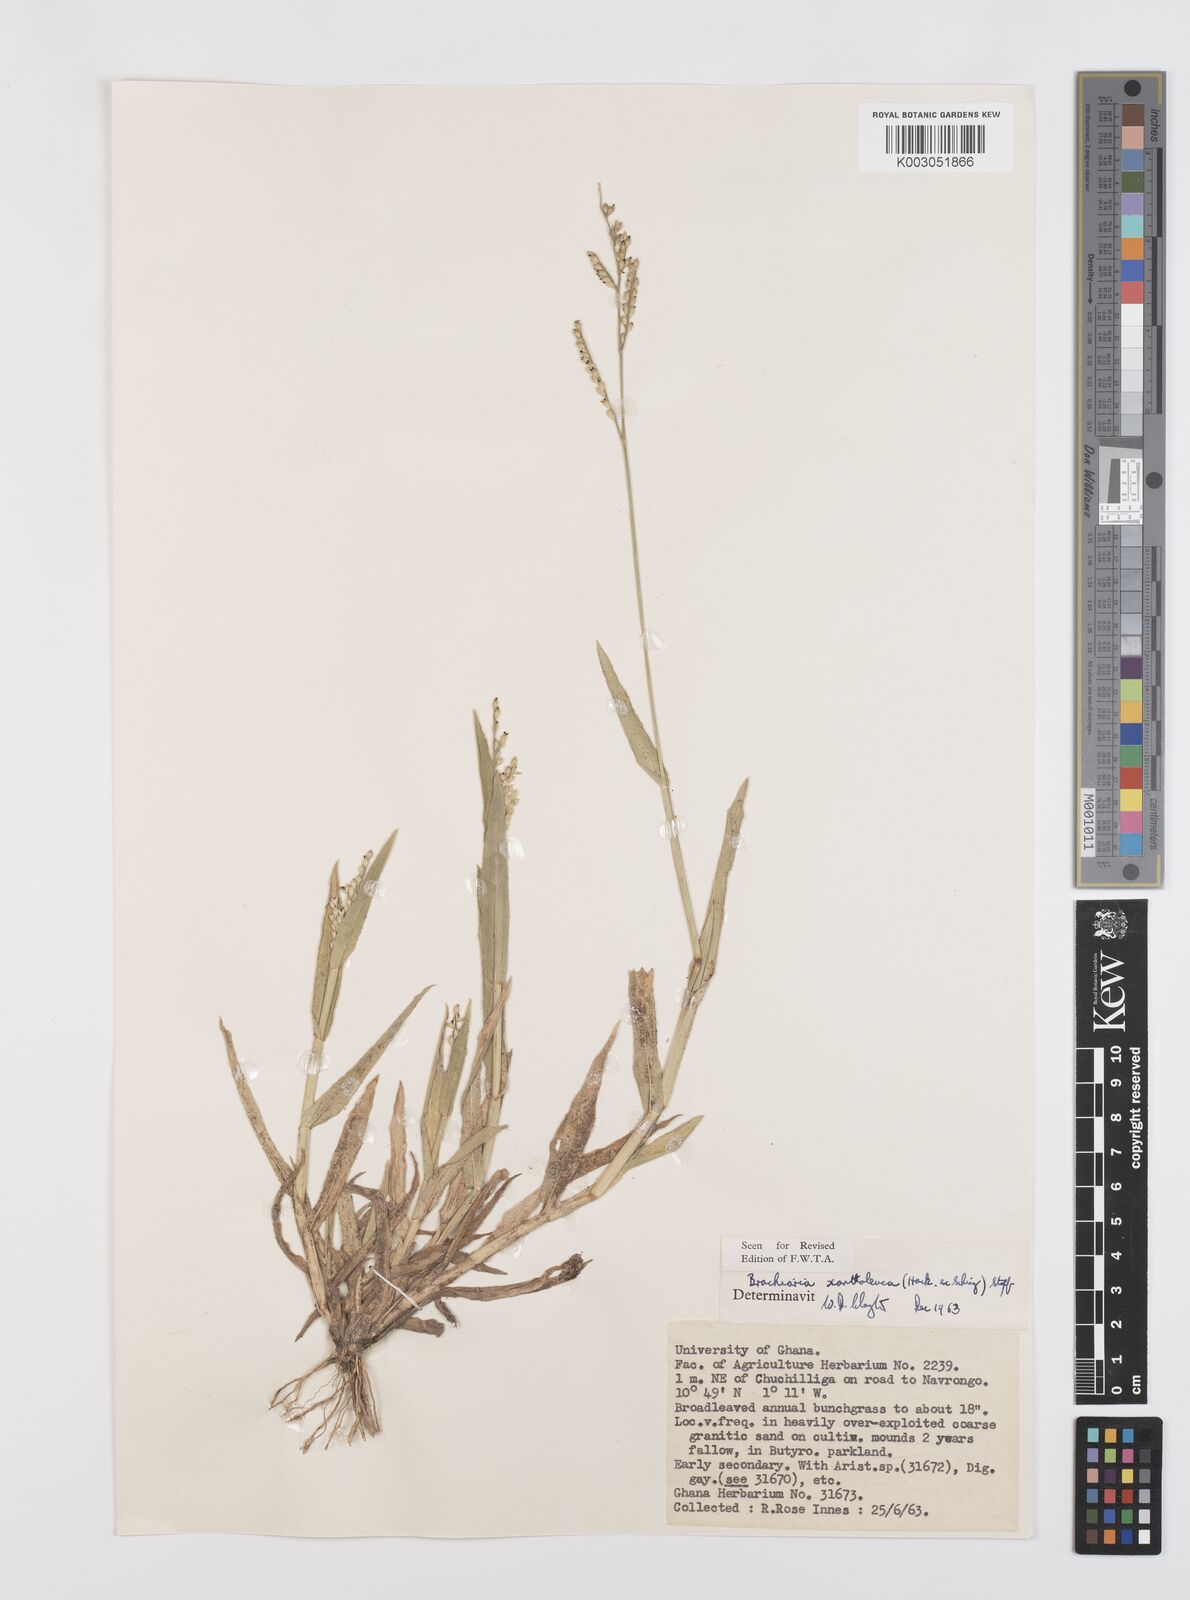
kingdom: Plantae
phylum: Tracheophyta
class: Liliopsida
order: Poales
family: Poaceae
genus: Urochloa
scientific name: Urochloa xantholeuca
